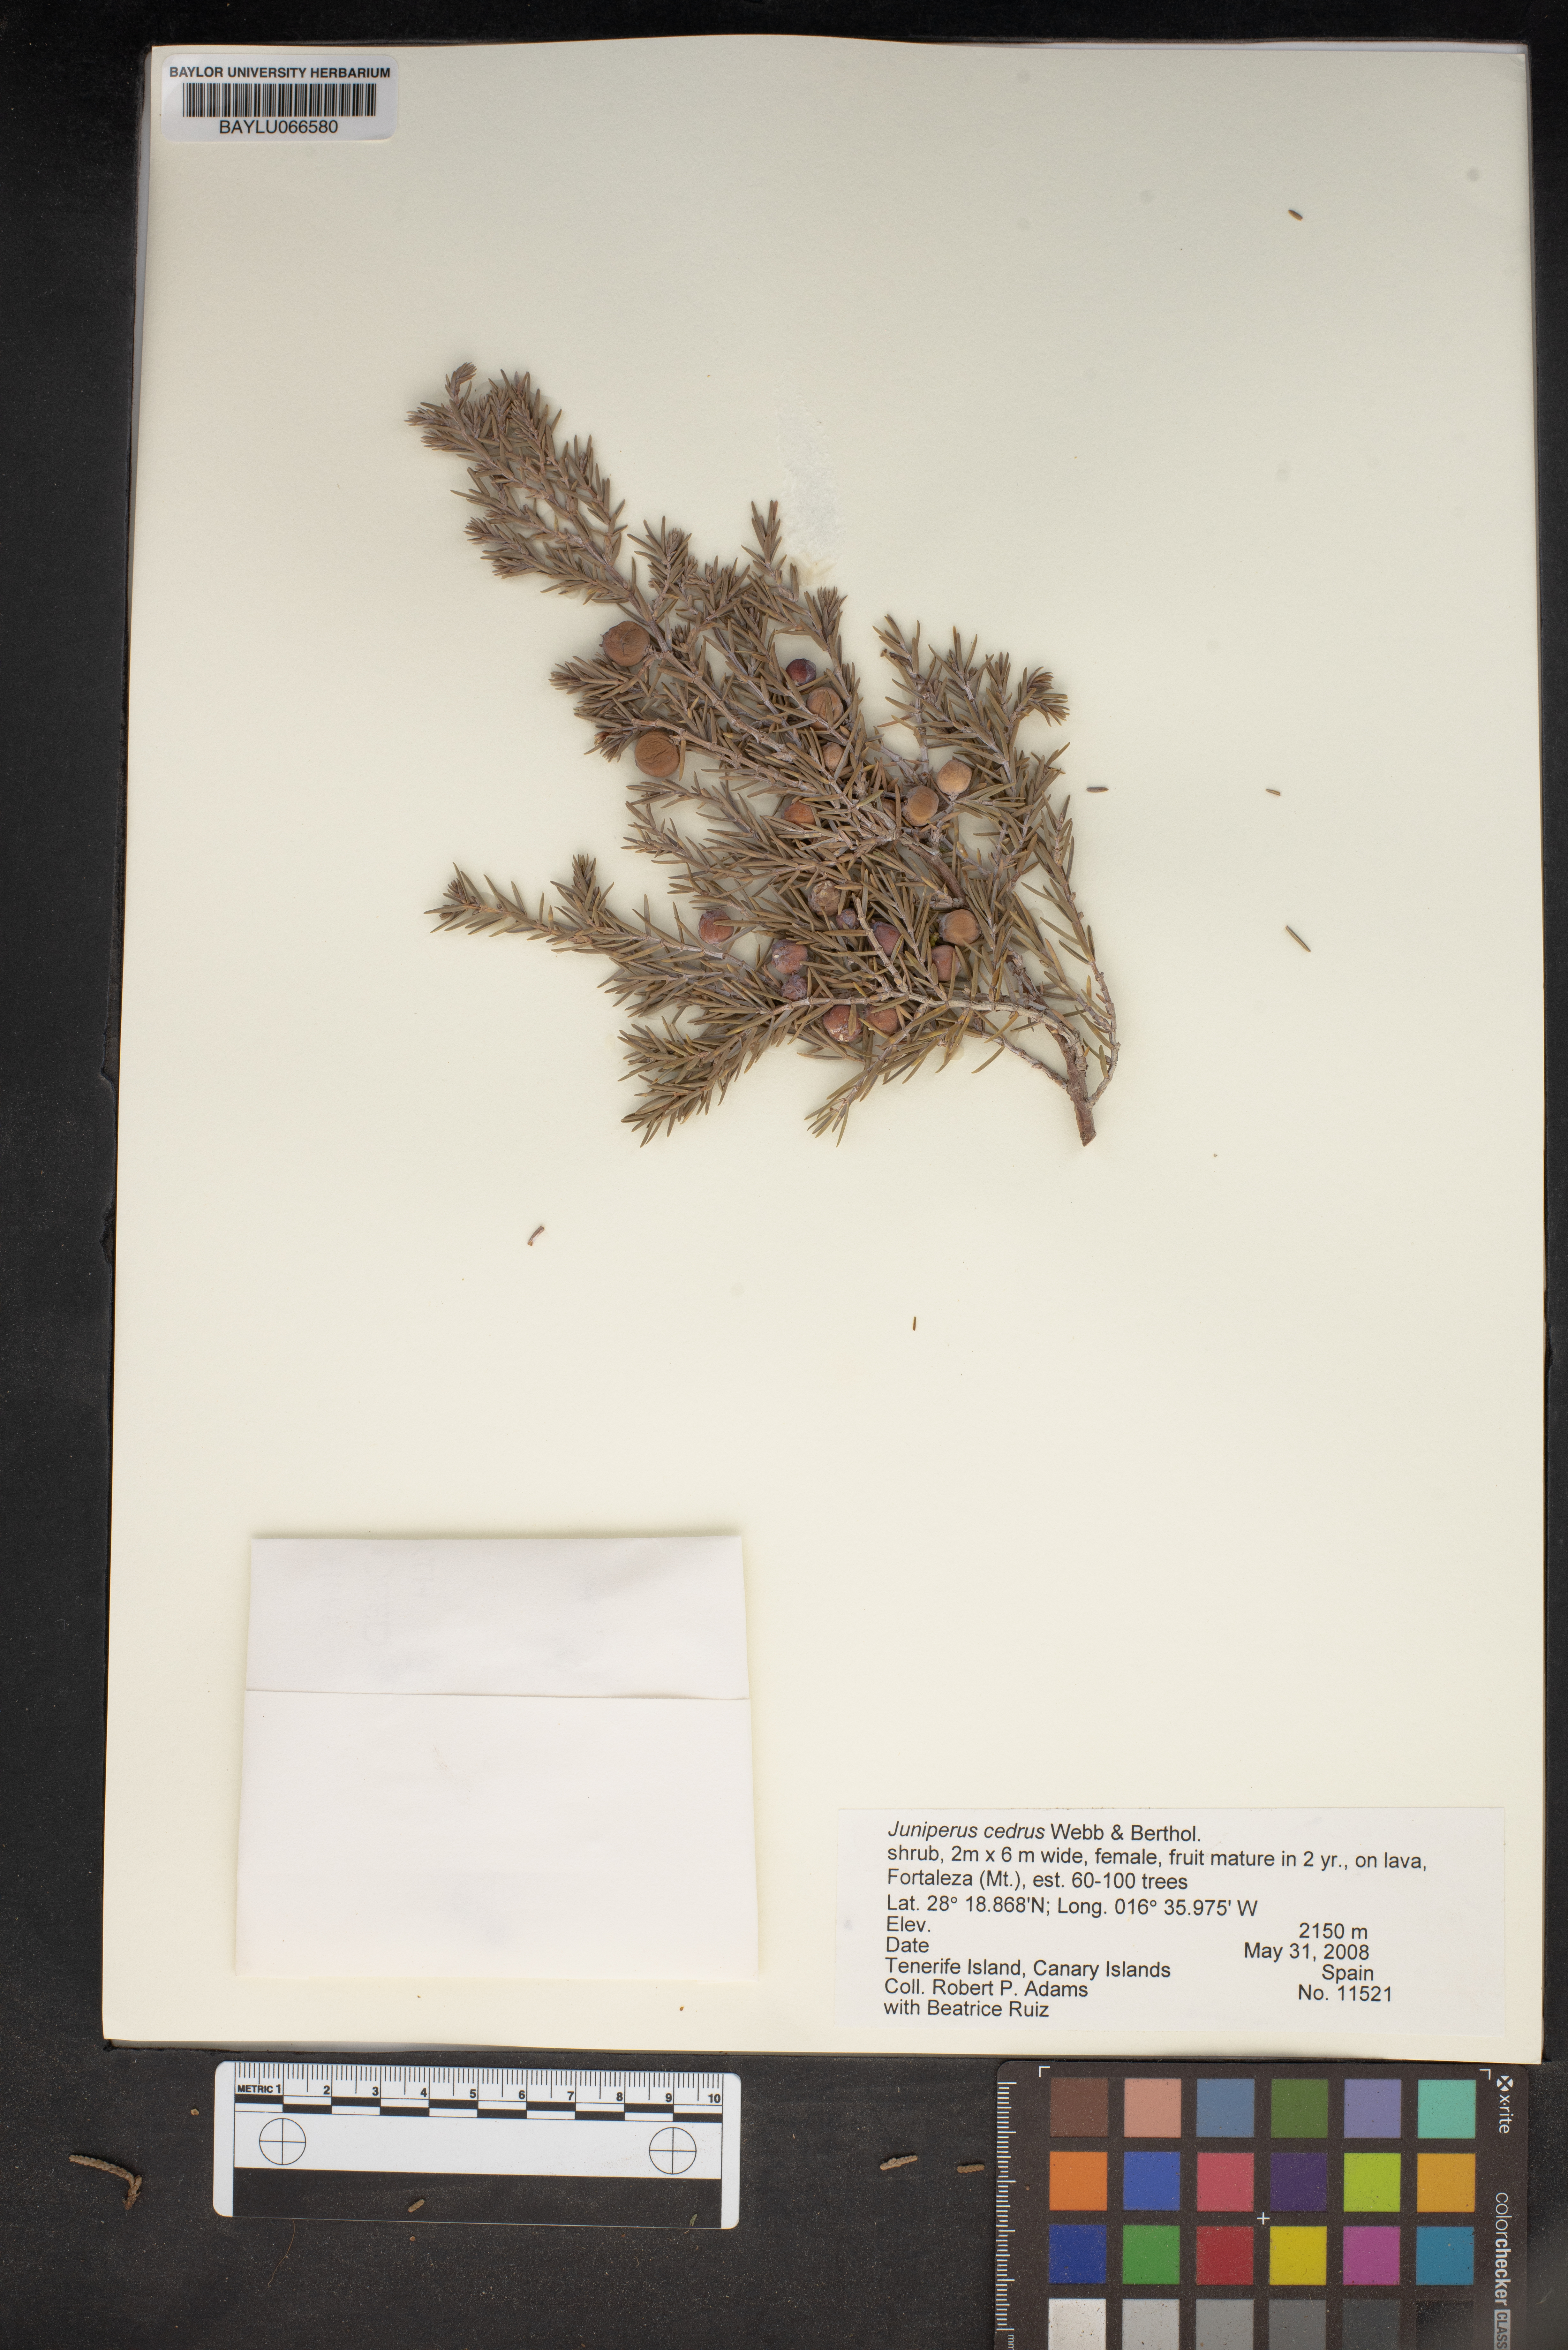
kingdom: Plantae
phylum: Tracheophyta
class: Pinopsida
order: Pinales
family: Cupressaceae
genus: Juniperus
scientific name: Juniperus cedrus
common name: Canary islands juniper
